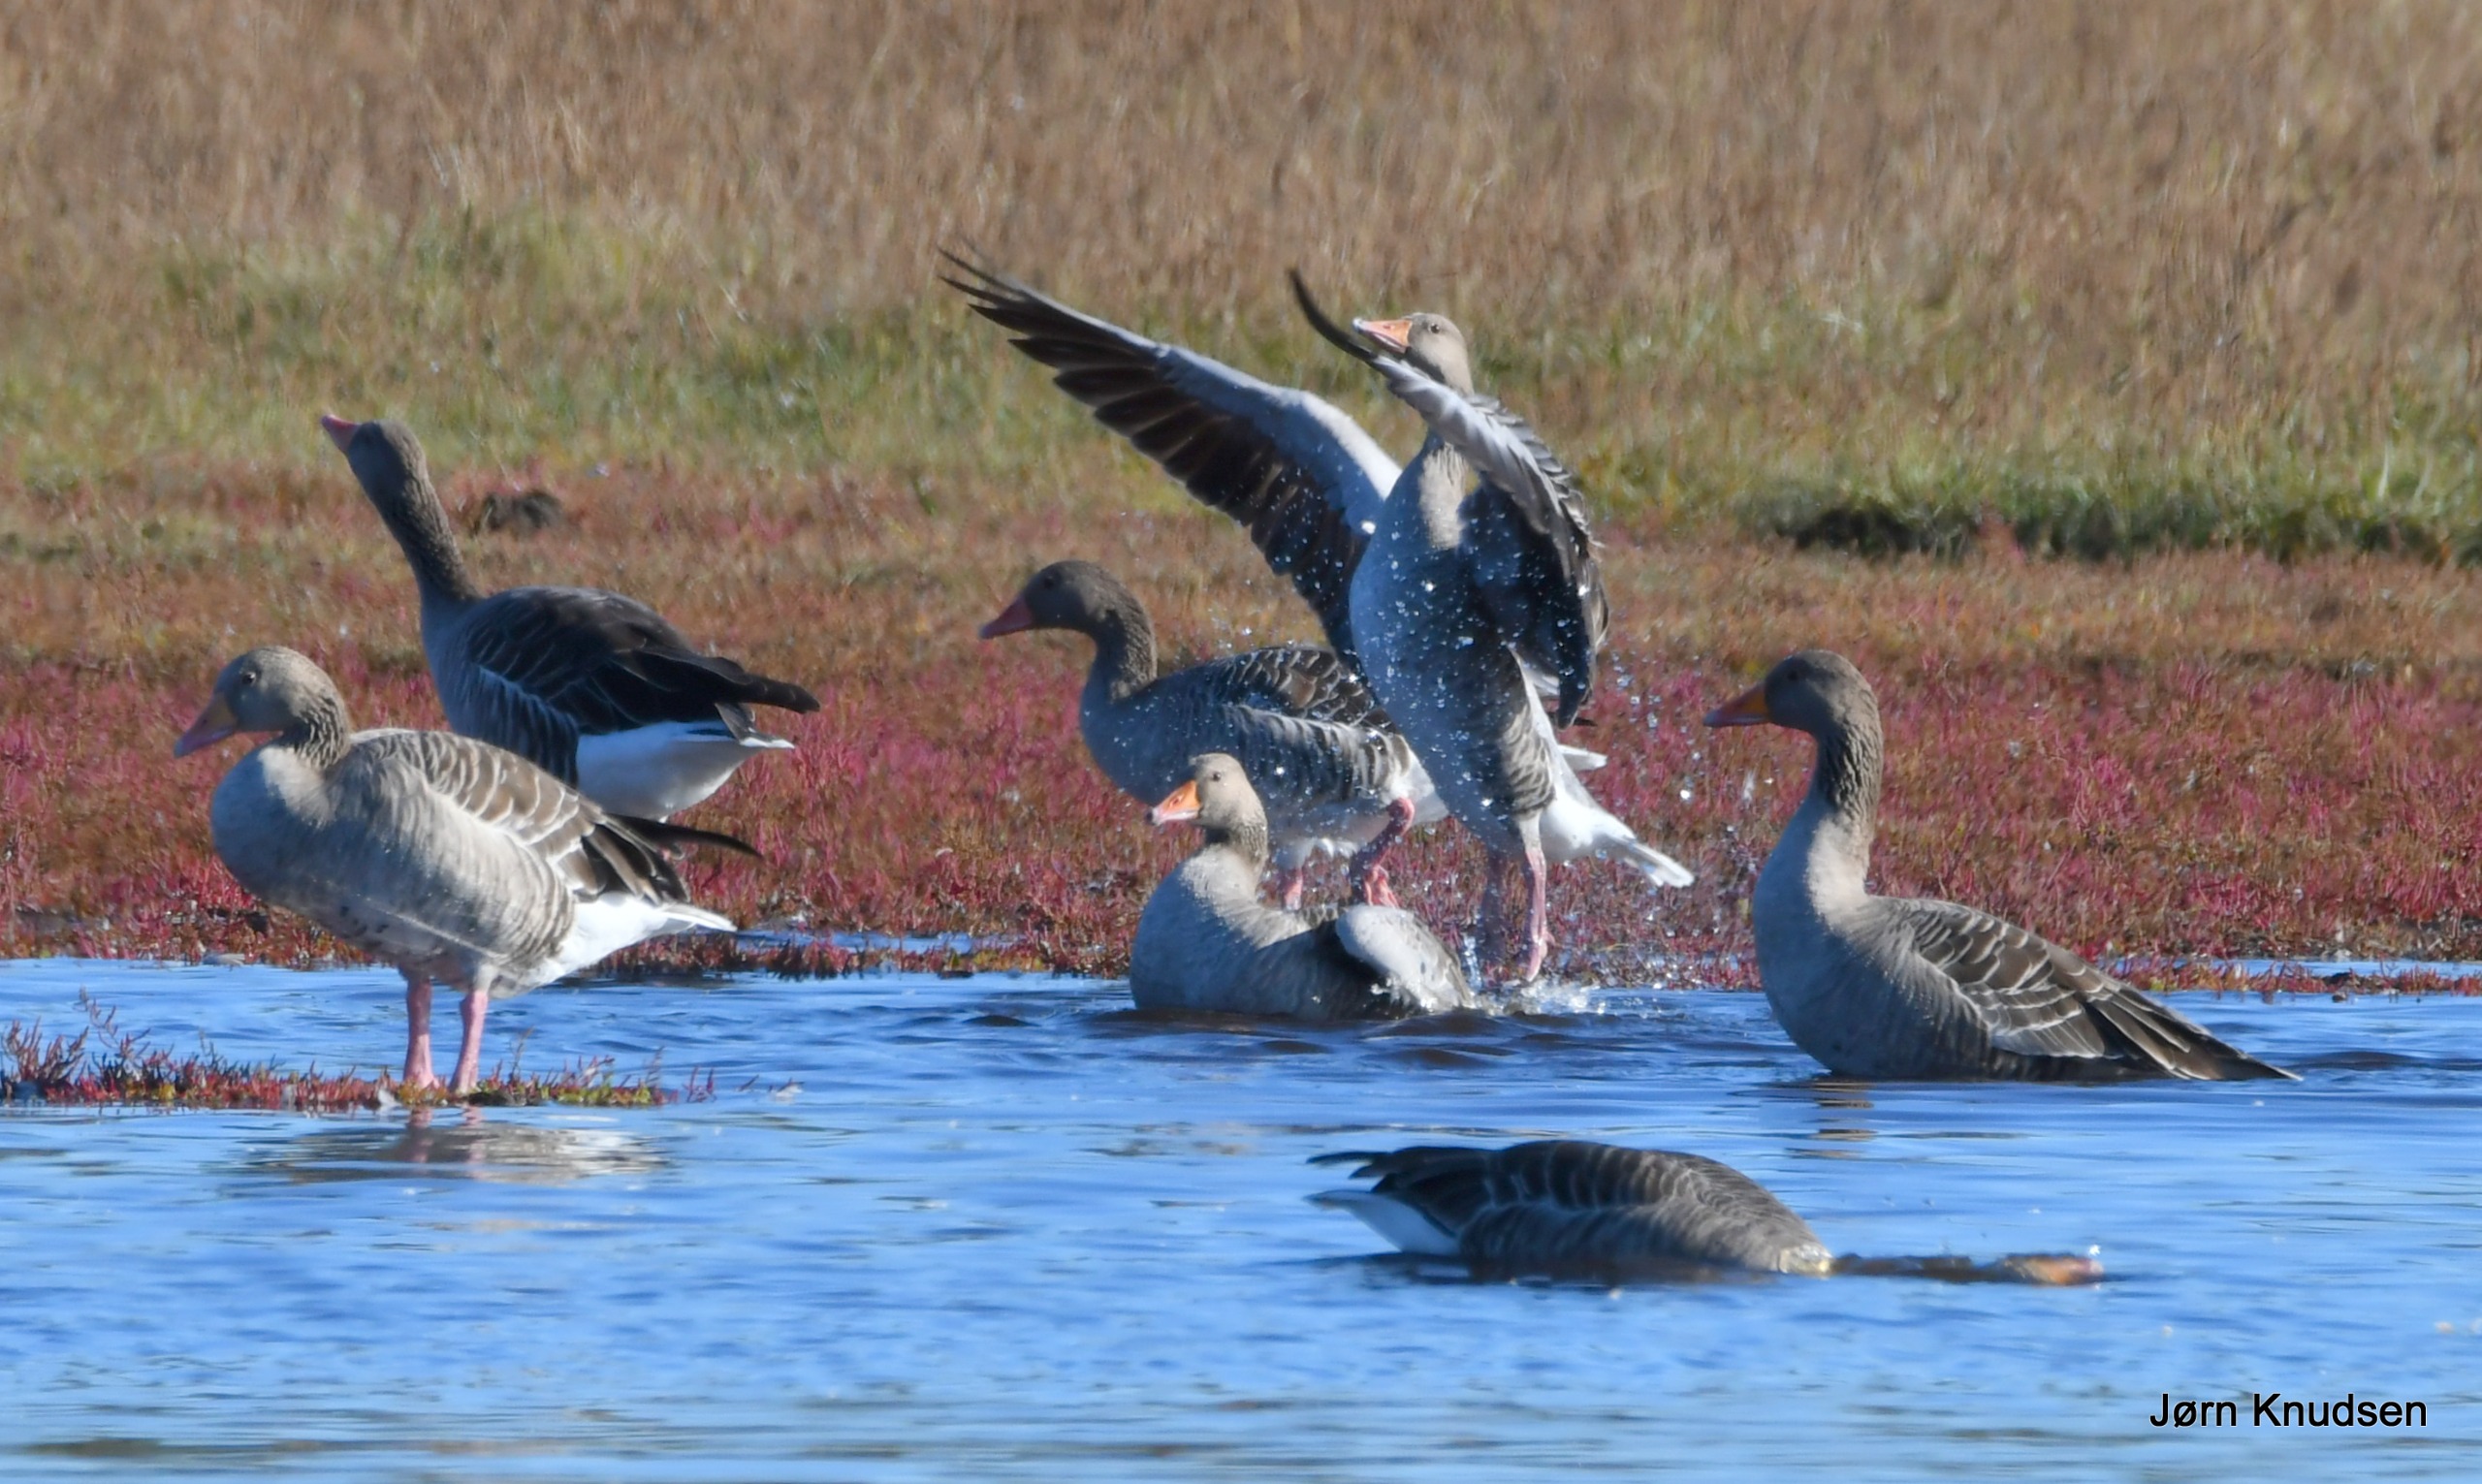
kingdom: Animalia
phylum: Chordata
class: Aves
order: Anseriformes
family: Anatidae
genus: Anser
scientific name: Anser anser
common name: Grågås
